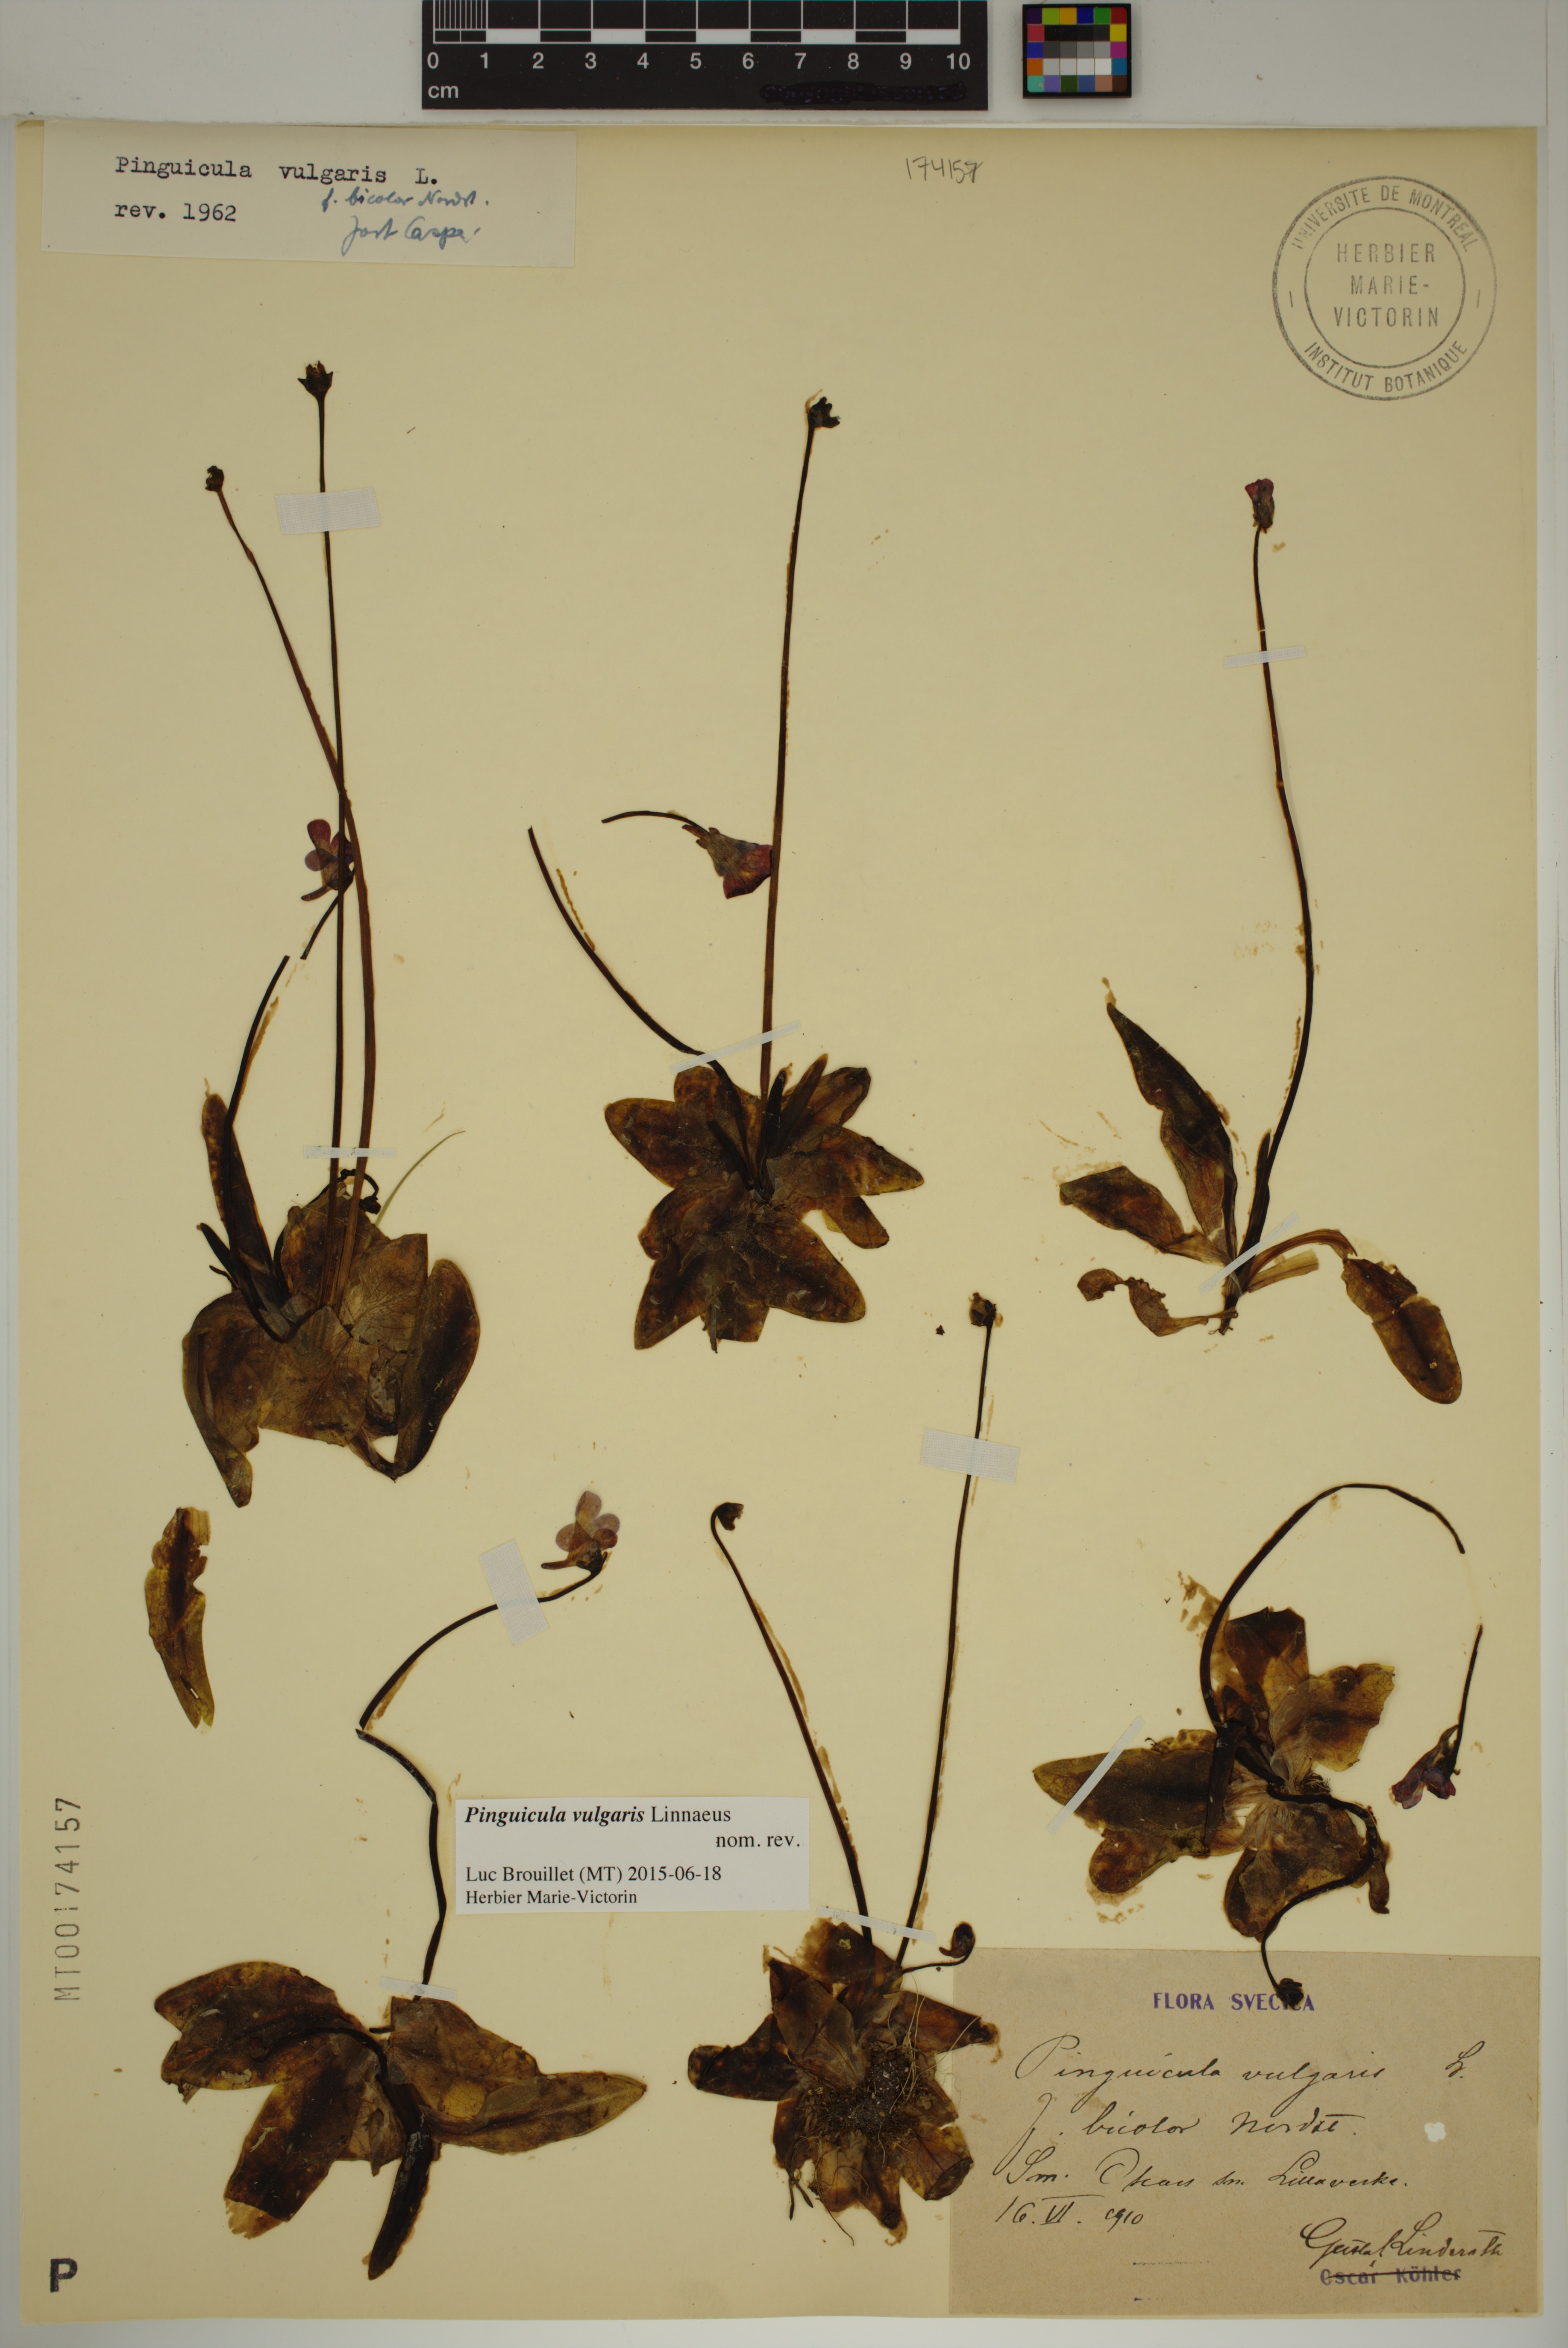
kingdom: Plantae
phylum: Tracheophyta
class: Magnoliopsida
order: Lamiales
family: Lentibulariaceae
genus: Pinguicula
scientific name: Pinguicula vulgaris
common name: Common butterwort
